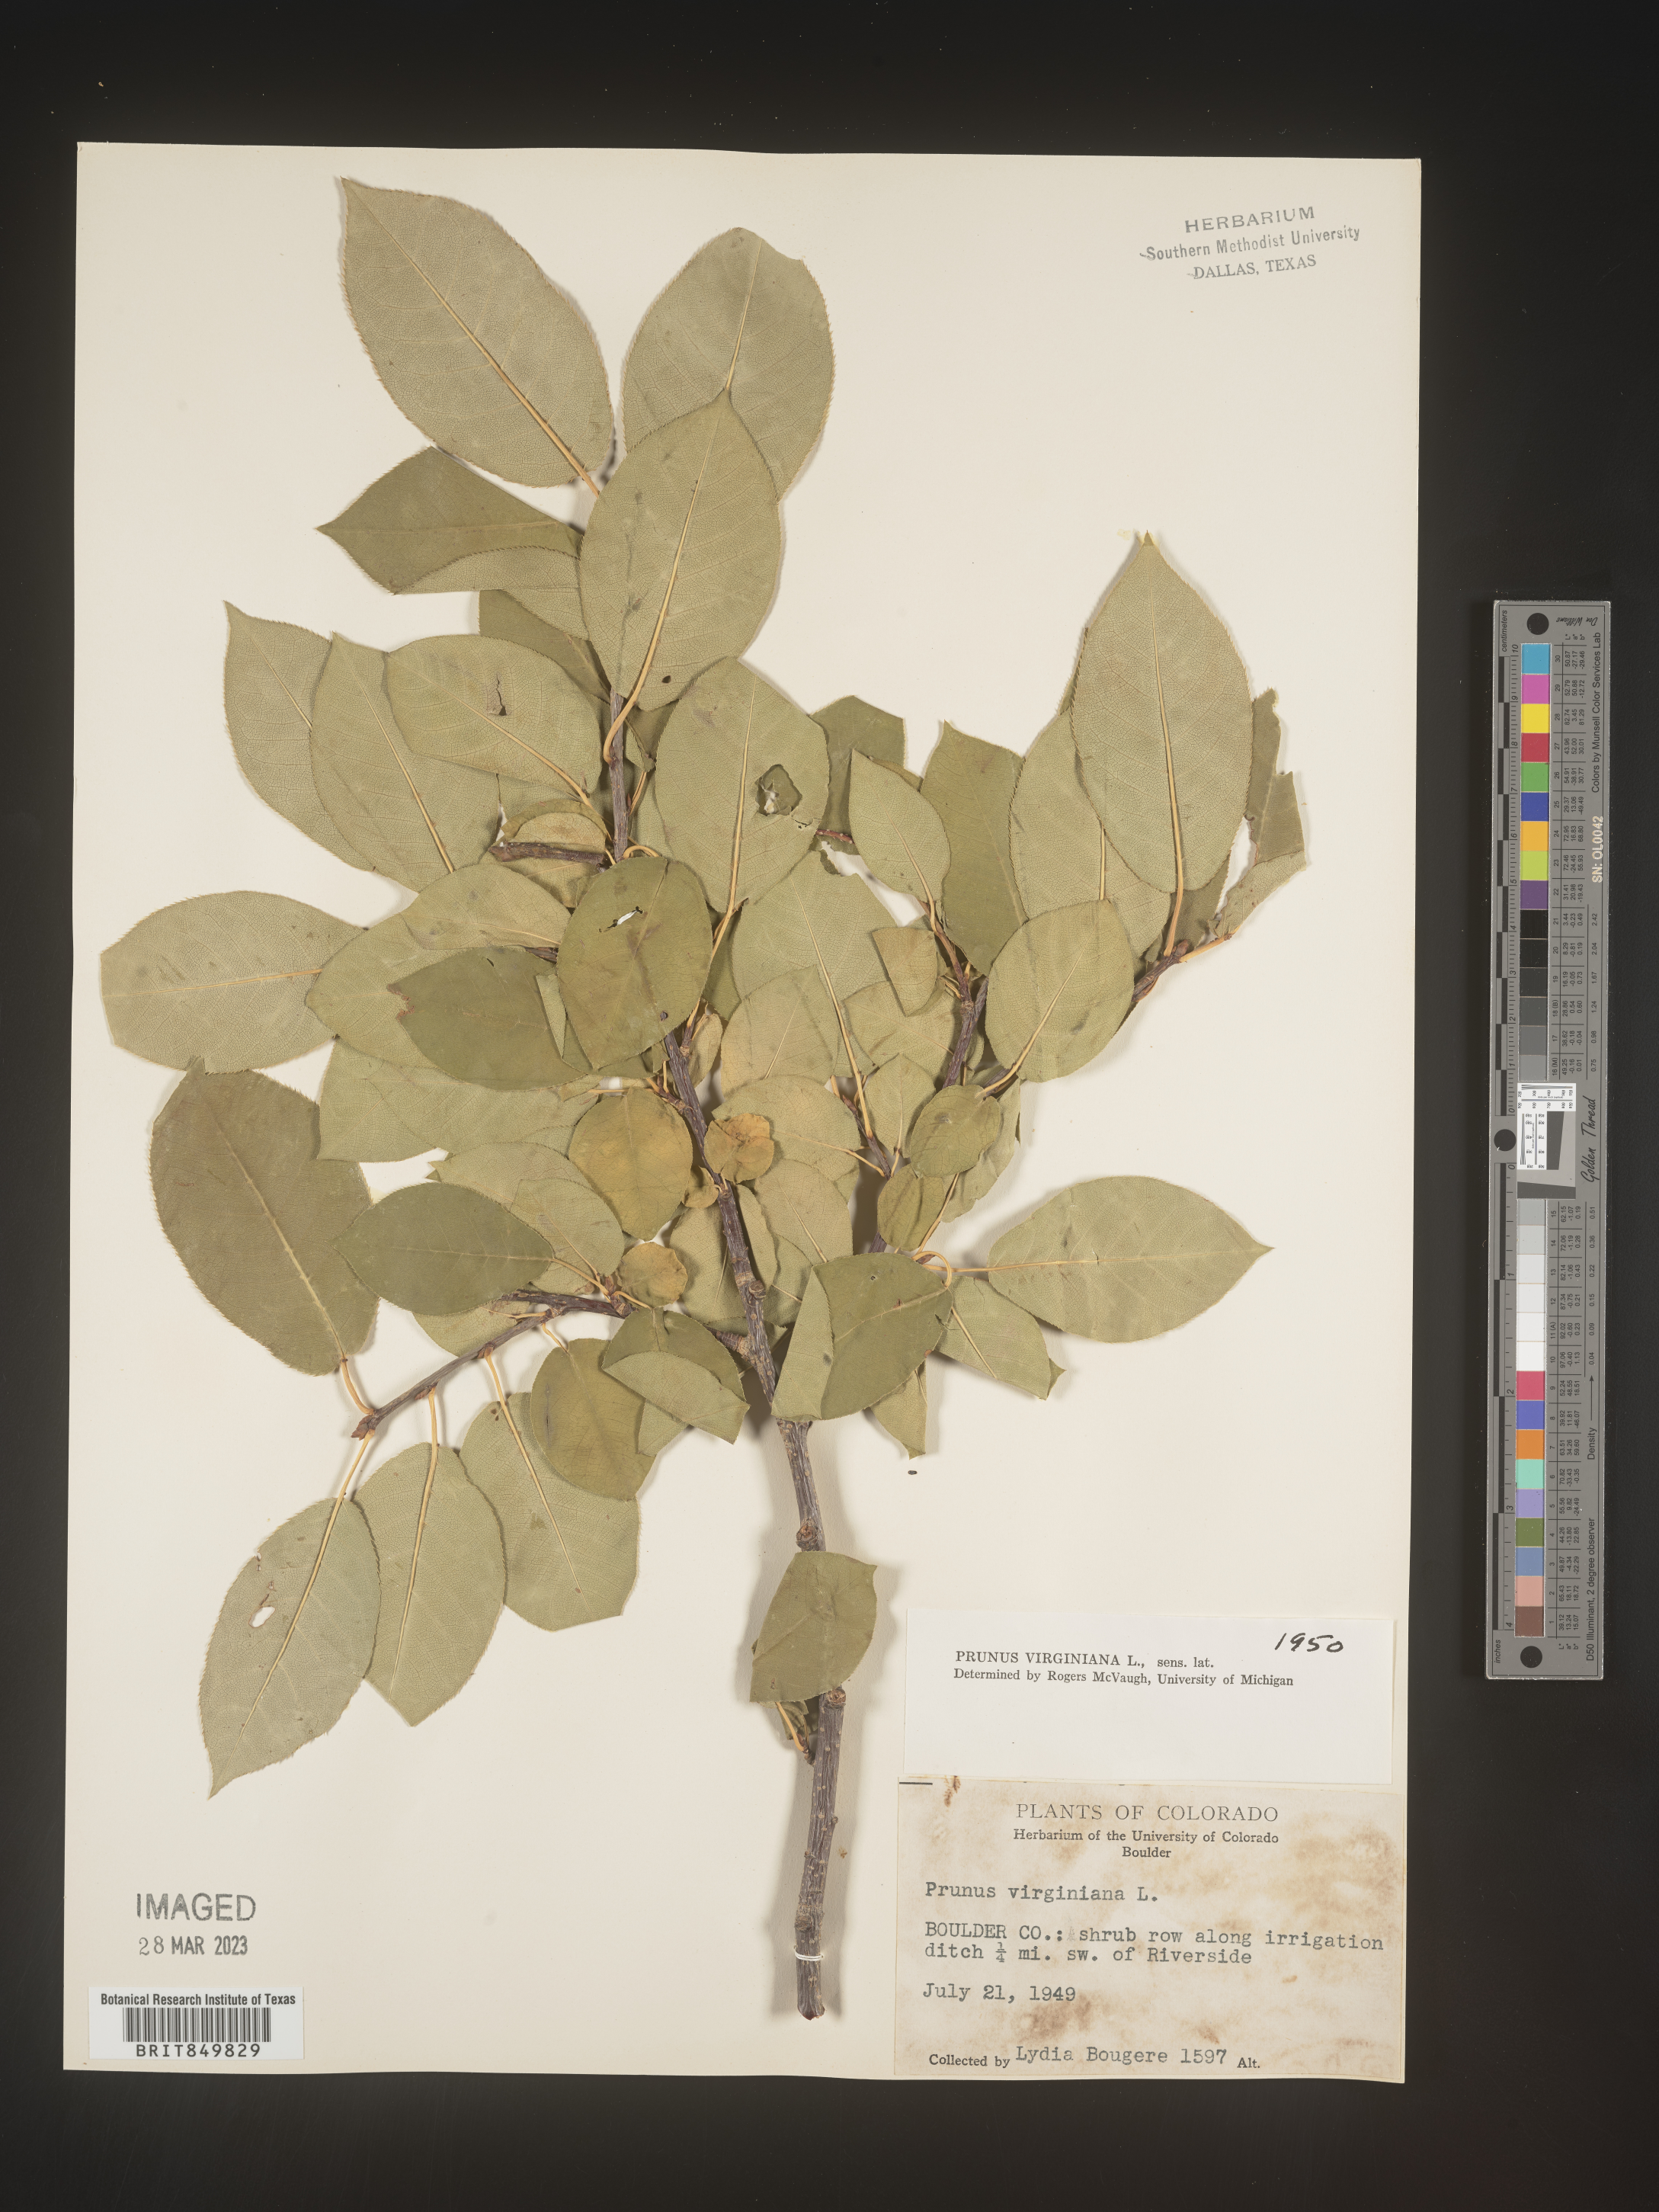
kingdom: Plantae
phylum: Tracheophyta
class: Magnoliopsida
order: Rosales
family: Rosaceae
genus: Prunus
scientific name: Prunus virginiana
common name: Chokecherry
